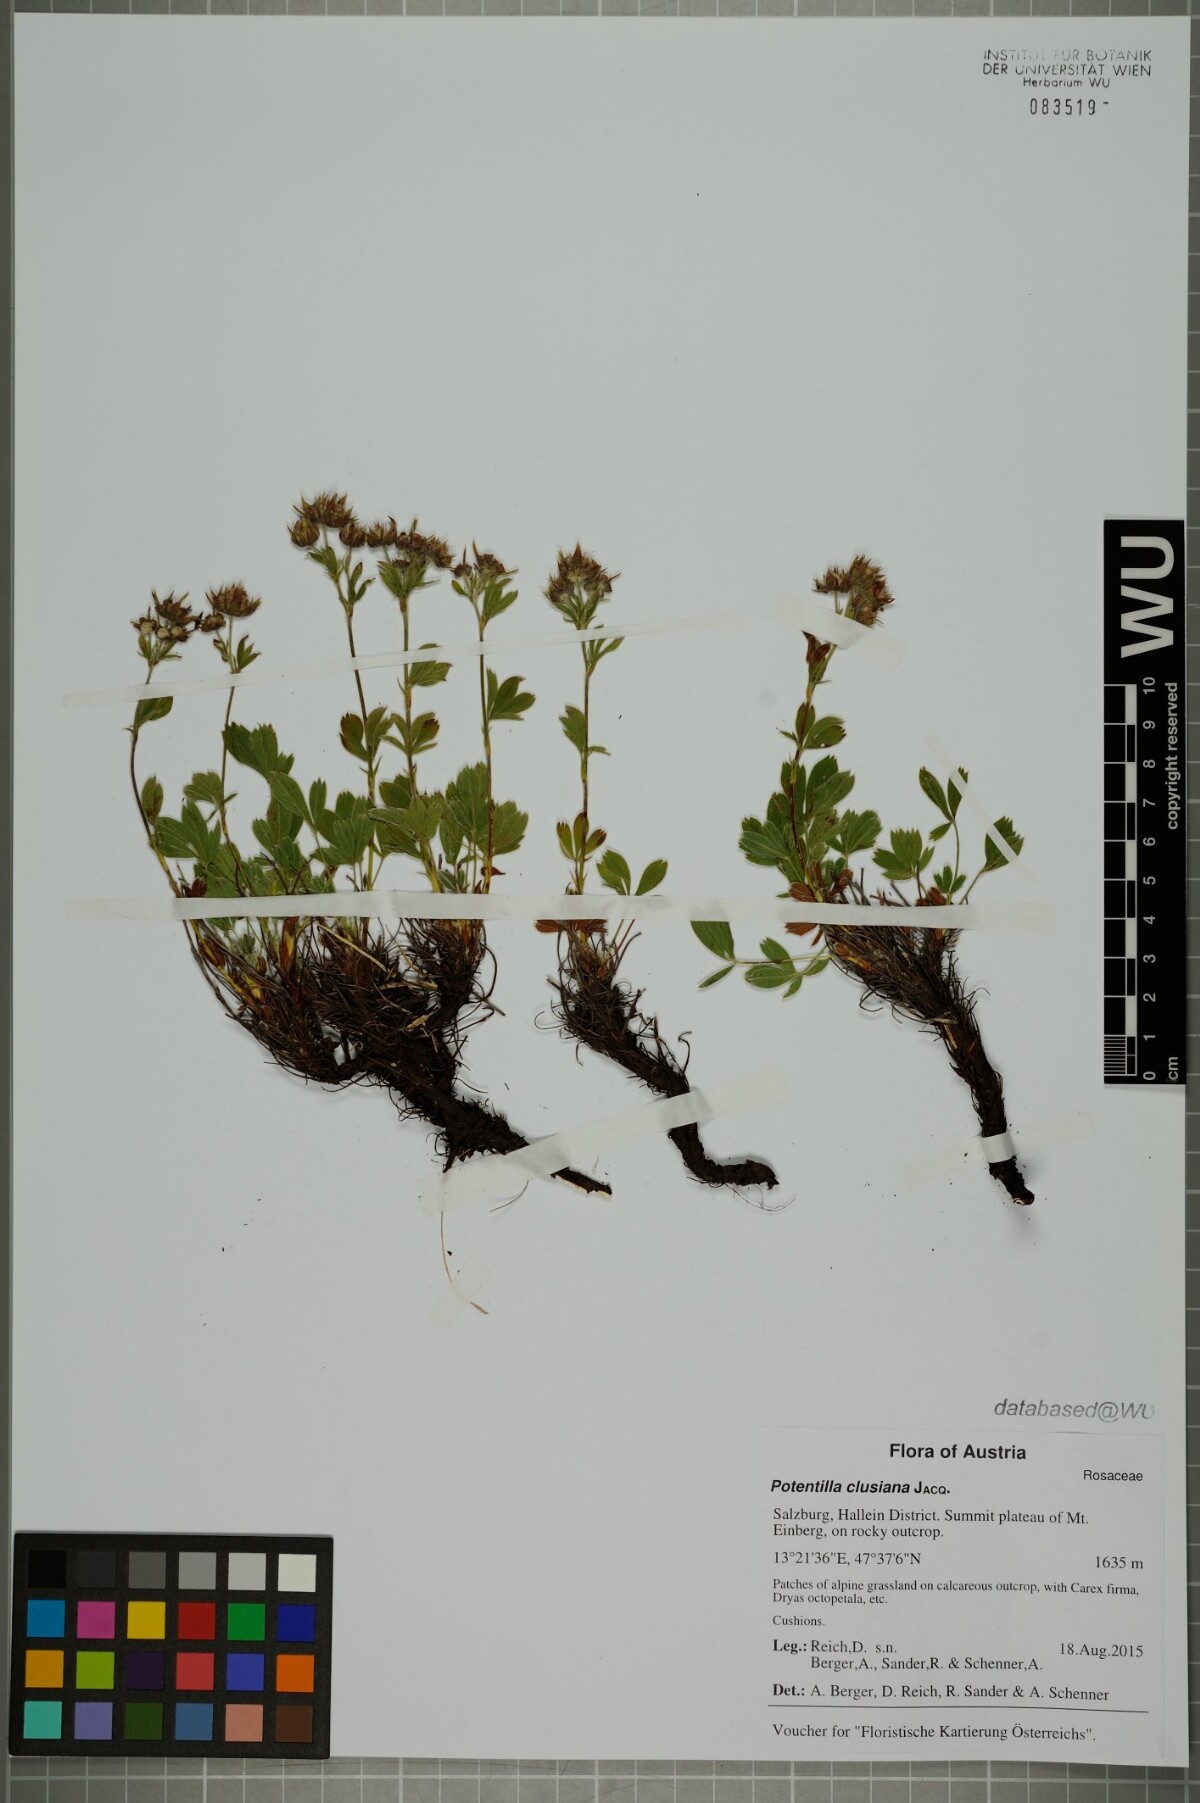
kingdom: Plantae
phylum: Tracheophyta
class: Magnoliopsida
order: Rosales
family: Rosaceae
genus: Potentilla
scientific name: Potentilla clusiana
